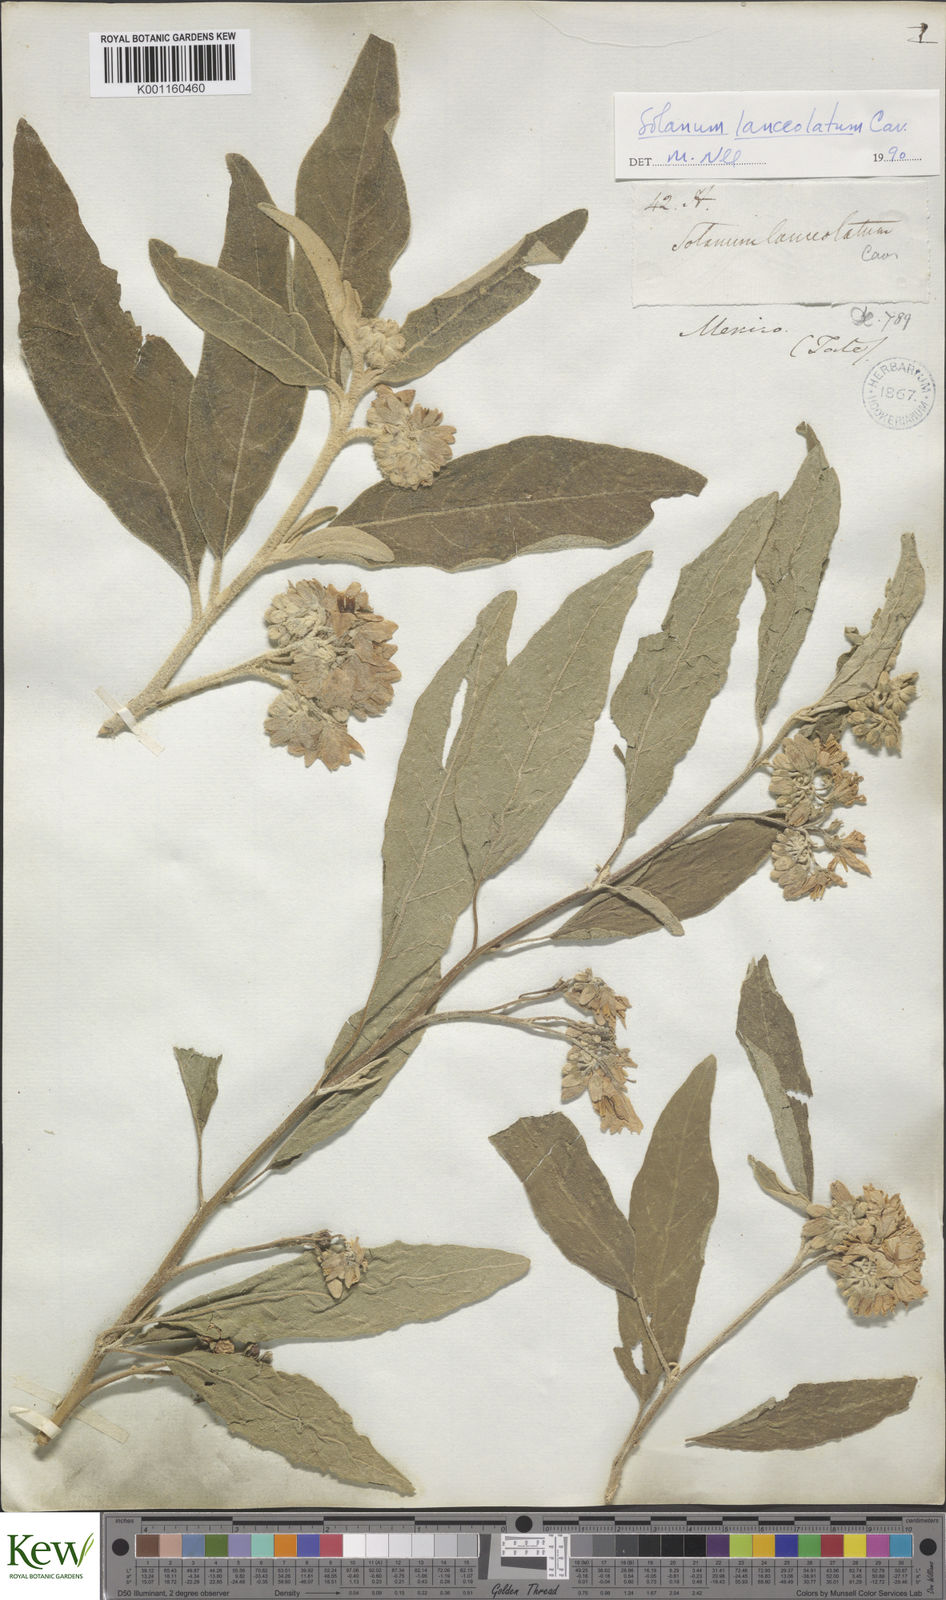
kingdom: Plantae
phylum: Tracheophyta
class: Magnoliopsida
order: Solanales
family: Solanaceae
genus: Solanum
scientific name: Solanum lanceolatum
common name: Orangeberry nightshade
